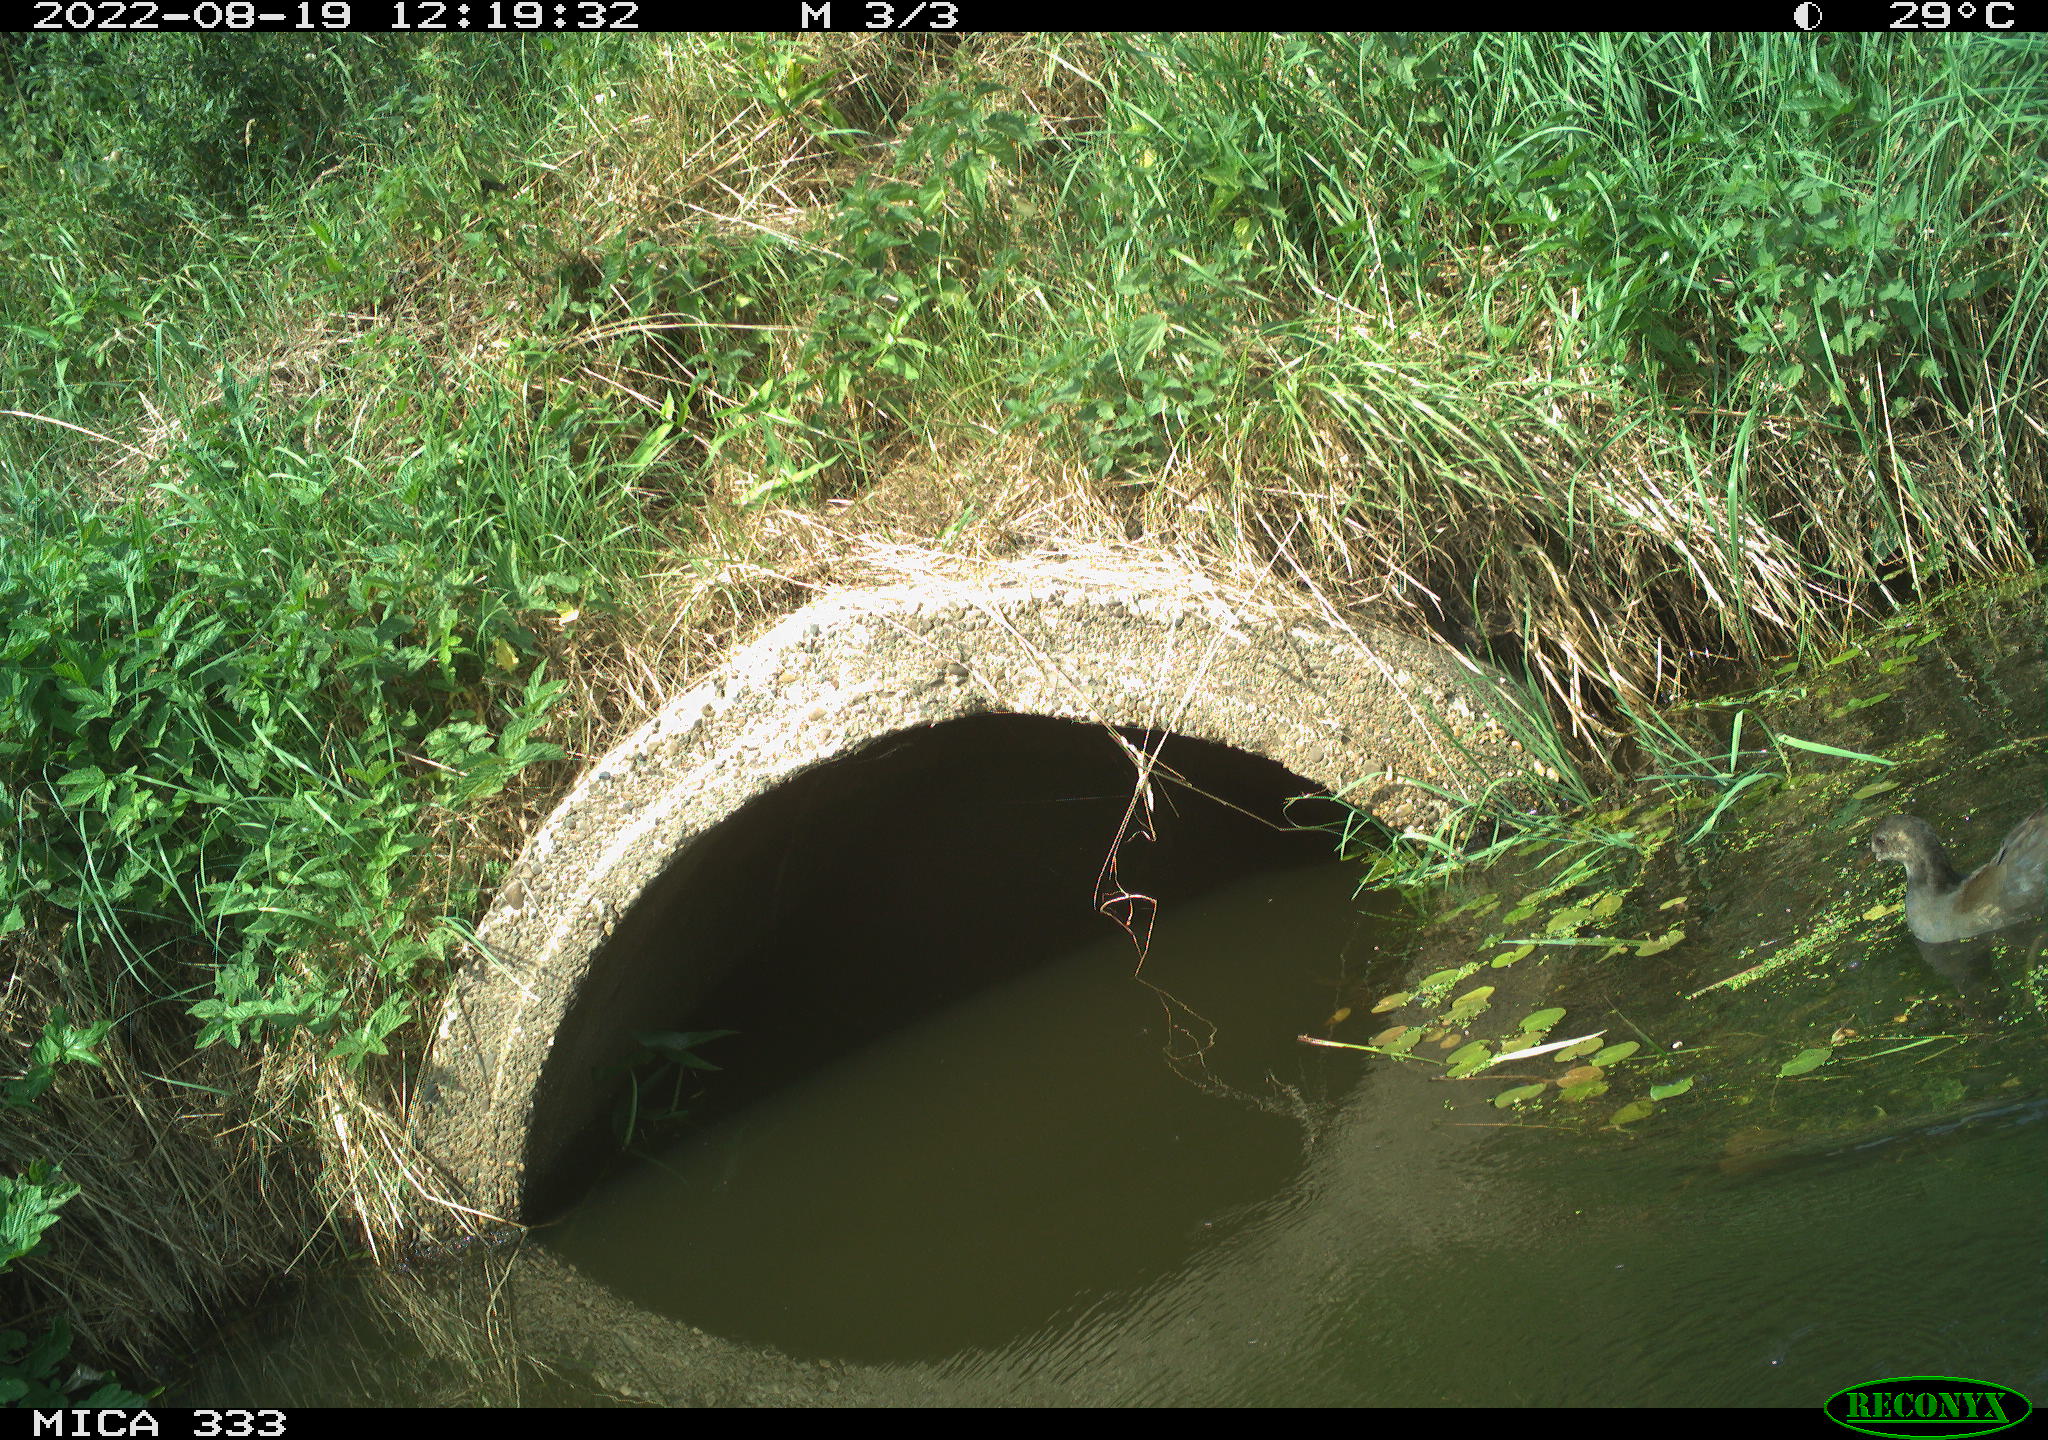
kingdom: Animalia
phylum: Chordata
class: Aves
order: Gruiformes
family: Rallidae
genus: Gallinula
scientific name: Gallinula chloropus
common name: Common moorhen
